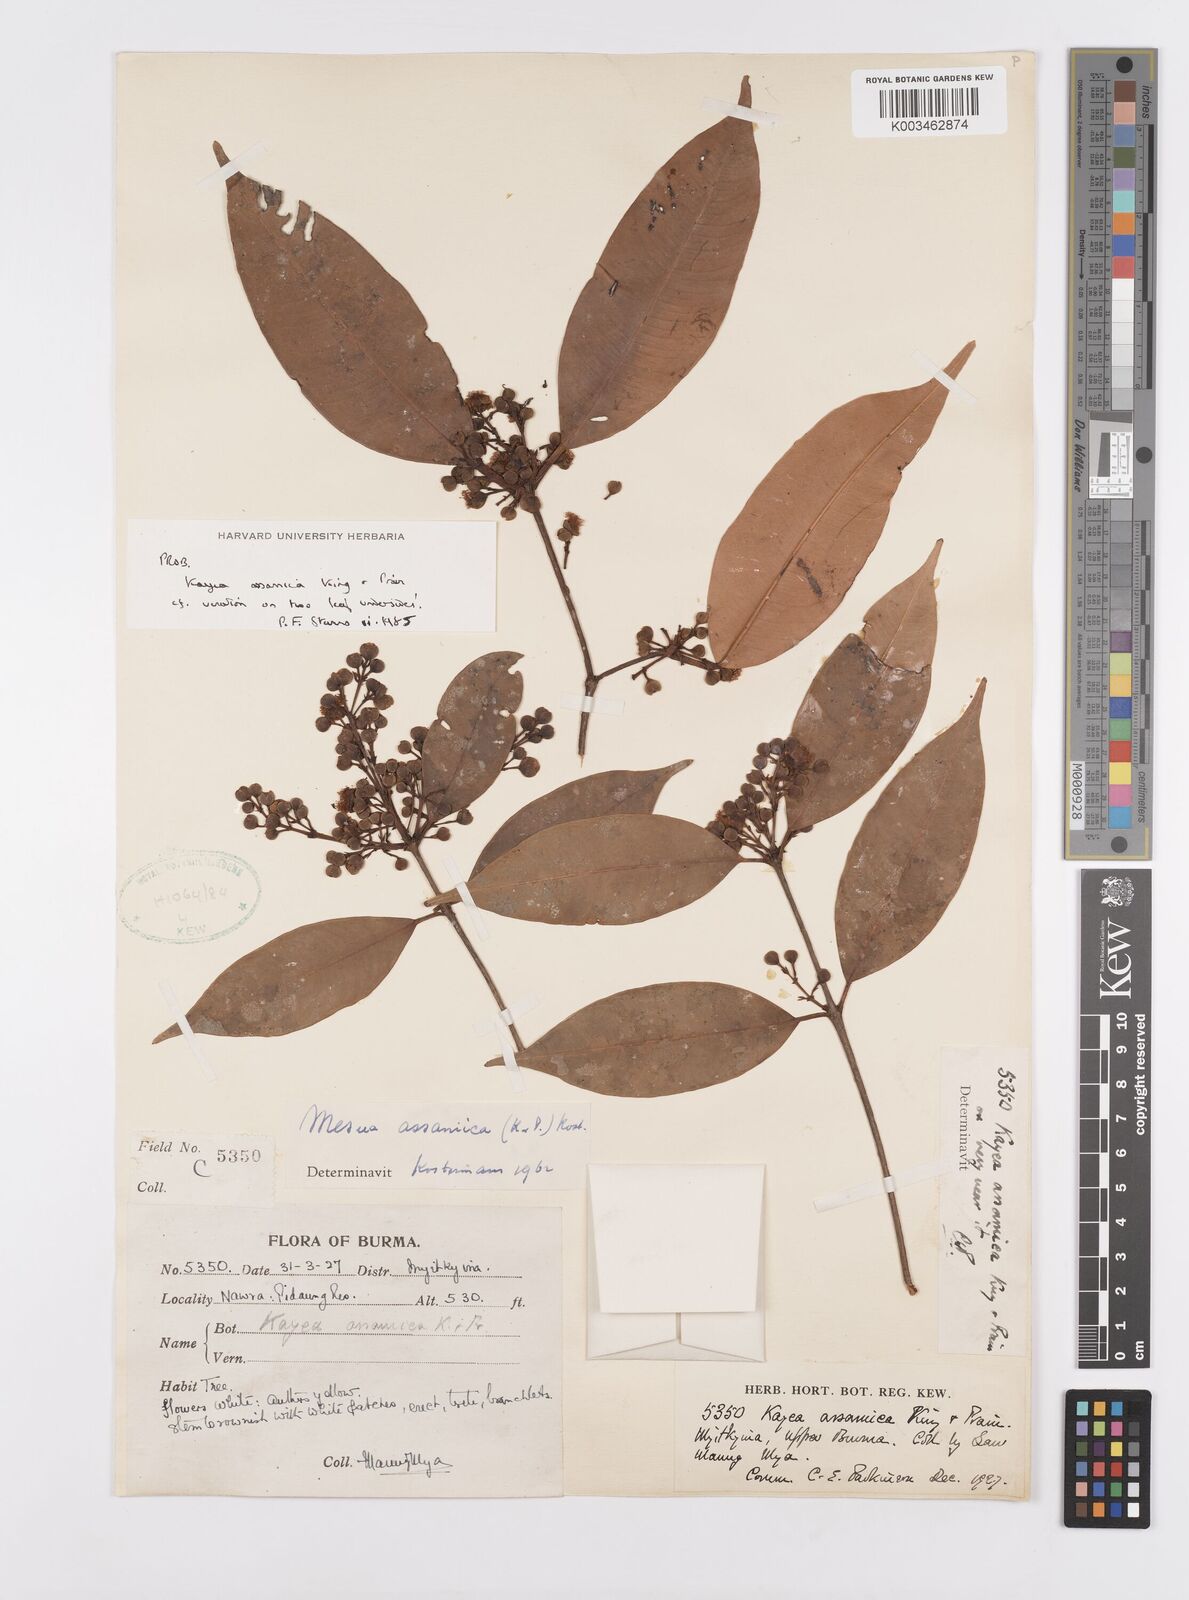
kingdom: Plantae
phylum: Tracheophyta
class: Magnoliopsida
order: Malpighiales
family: Calophyllaceae
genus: Kayea
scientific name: Kayea assamica
